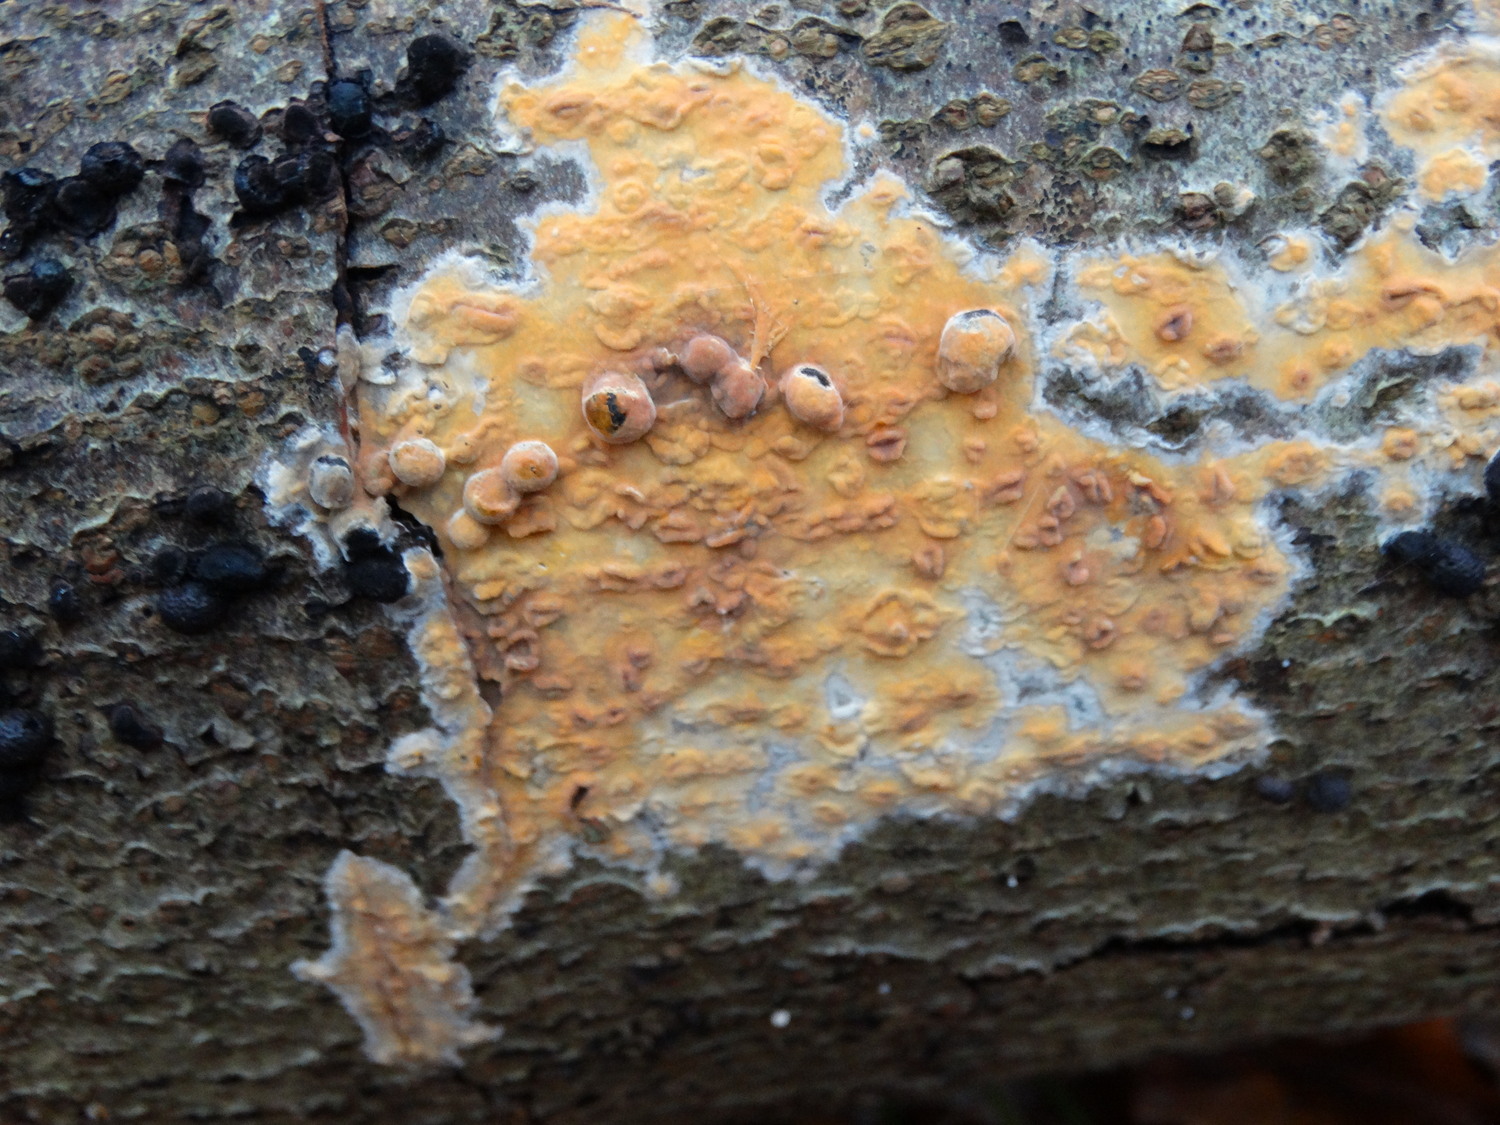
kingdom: Fungi
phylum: Basidiomycota
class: Agaricomycetes
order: Russulales
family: Peniophoraceae
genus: Peniophora
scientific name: Peniophora incarnata
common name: laksefarvet voksskind
